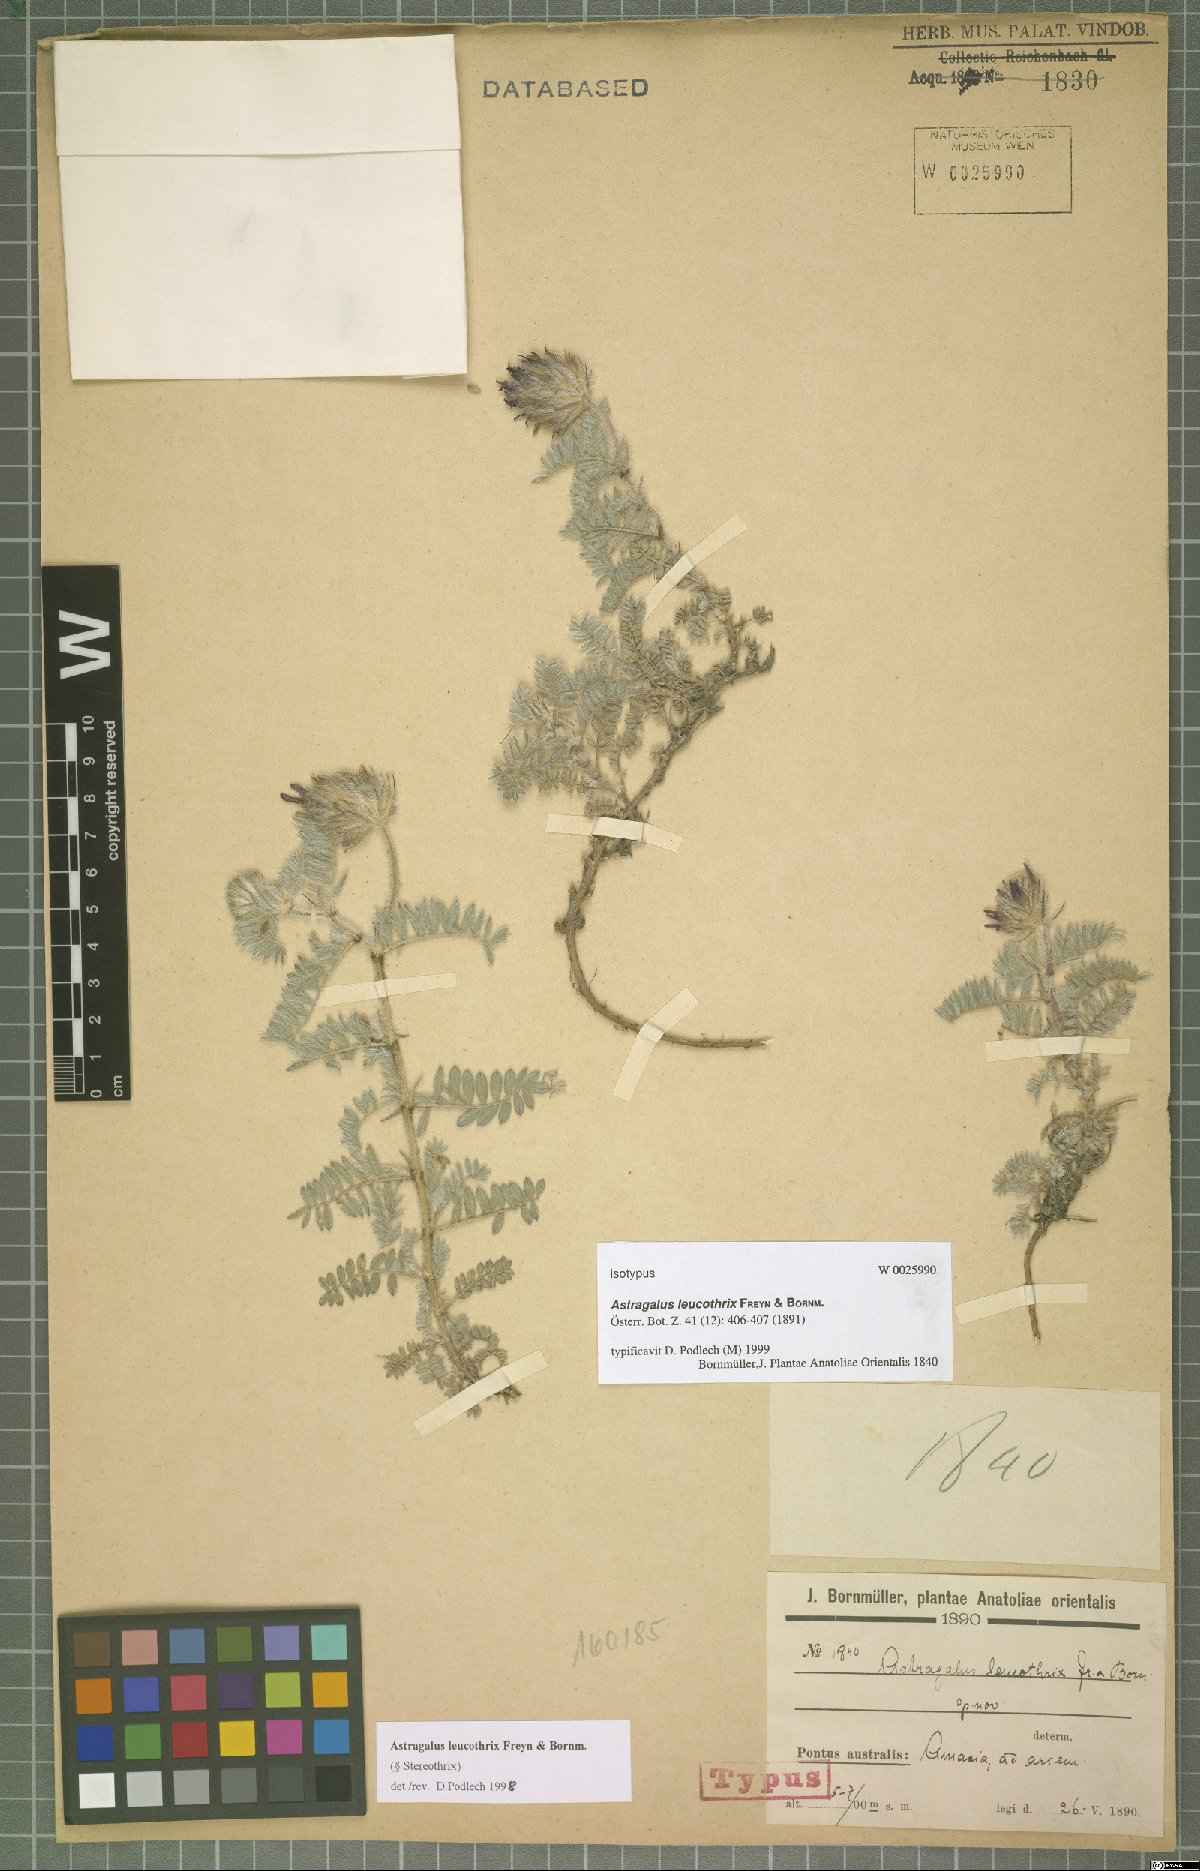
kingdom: Plantae
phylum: Tracheophyta
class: Magnoliopsida
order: Fabales
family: Fabaceae
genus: Astragalus
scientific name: Astragalus leucothrix
